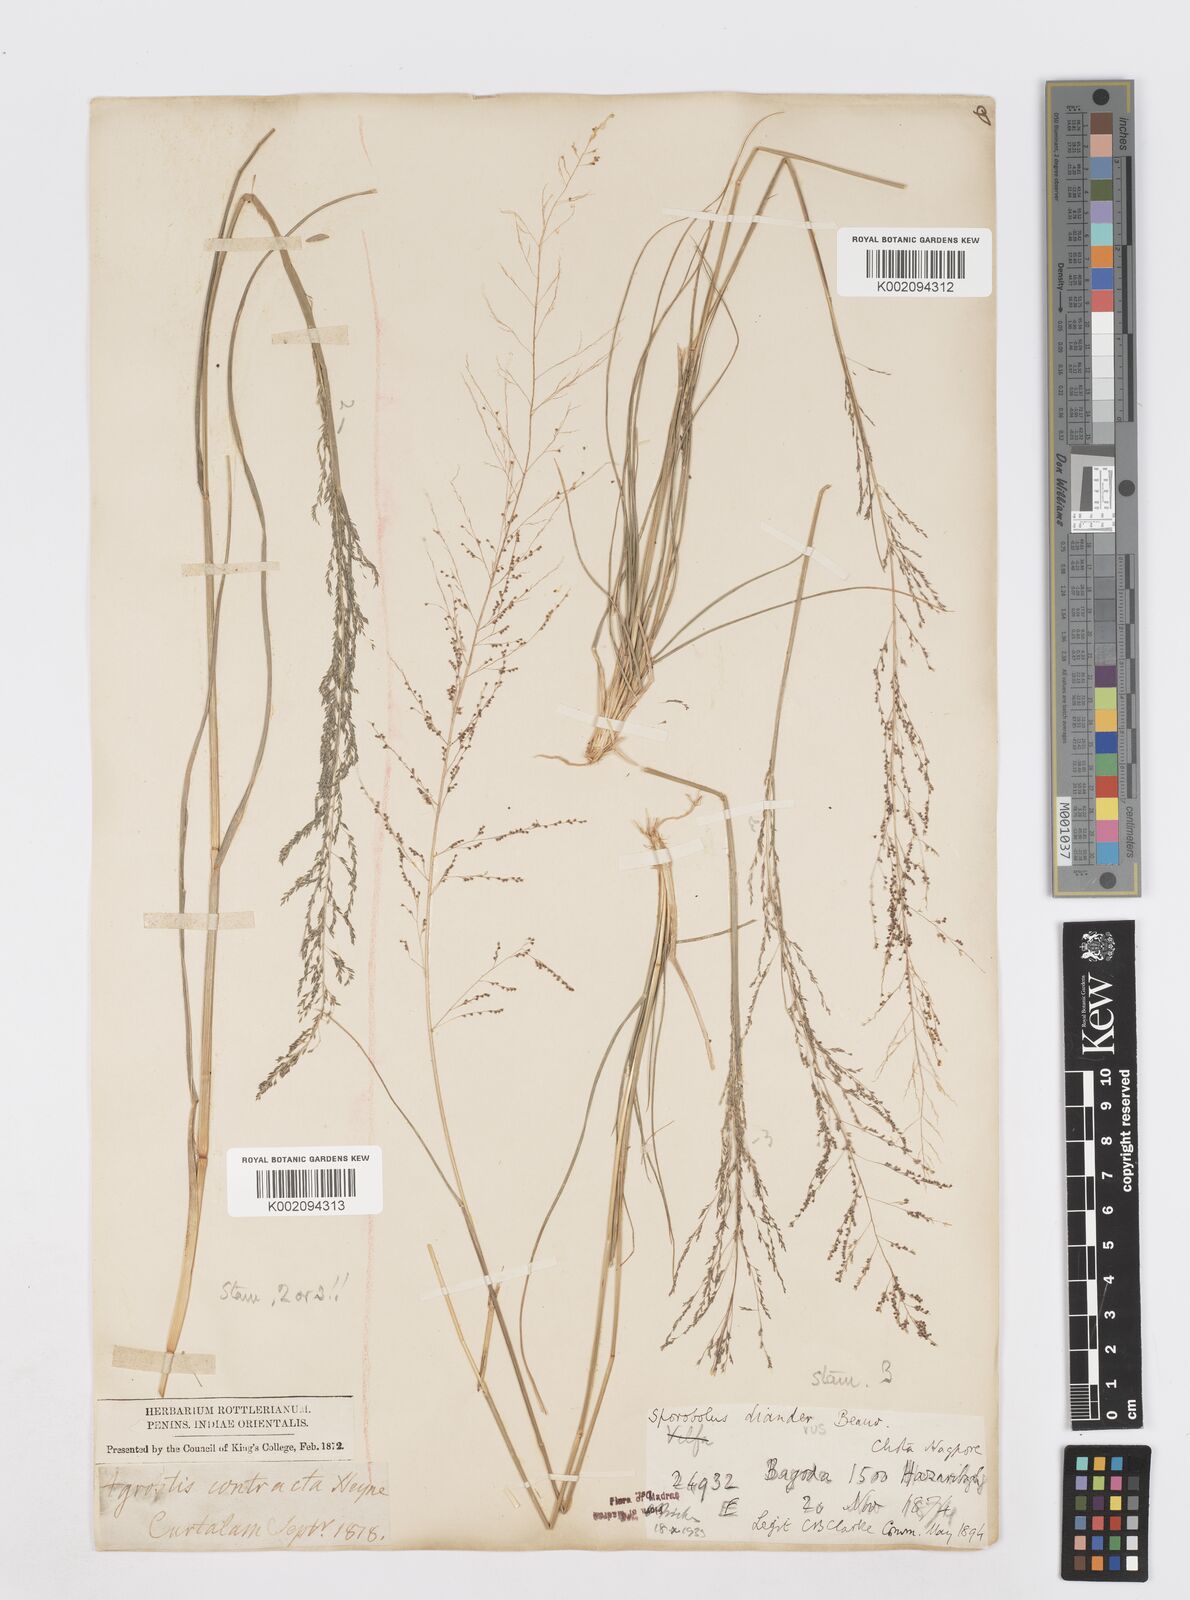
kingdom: Plantae
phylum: Tracheophyta
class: Liliopsida
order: Poales
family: Poaceae
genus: Sporobolus
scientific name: Sporobolus diandrus
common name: Tussock dropseed
